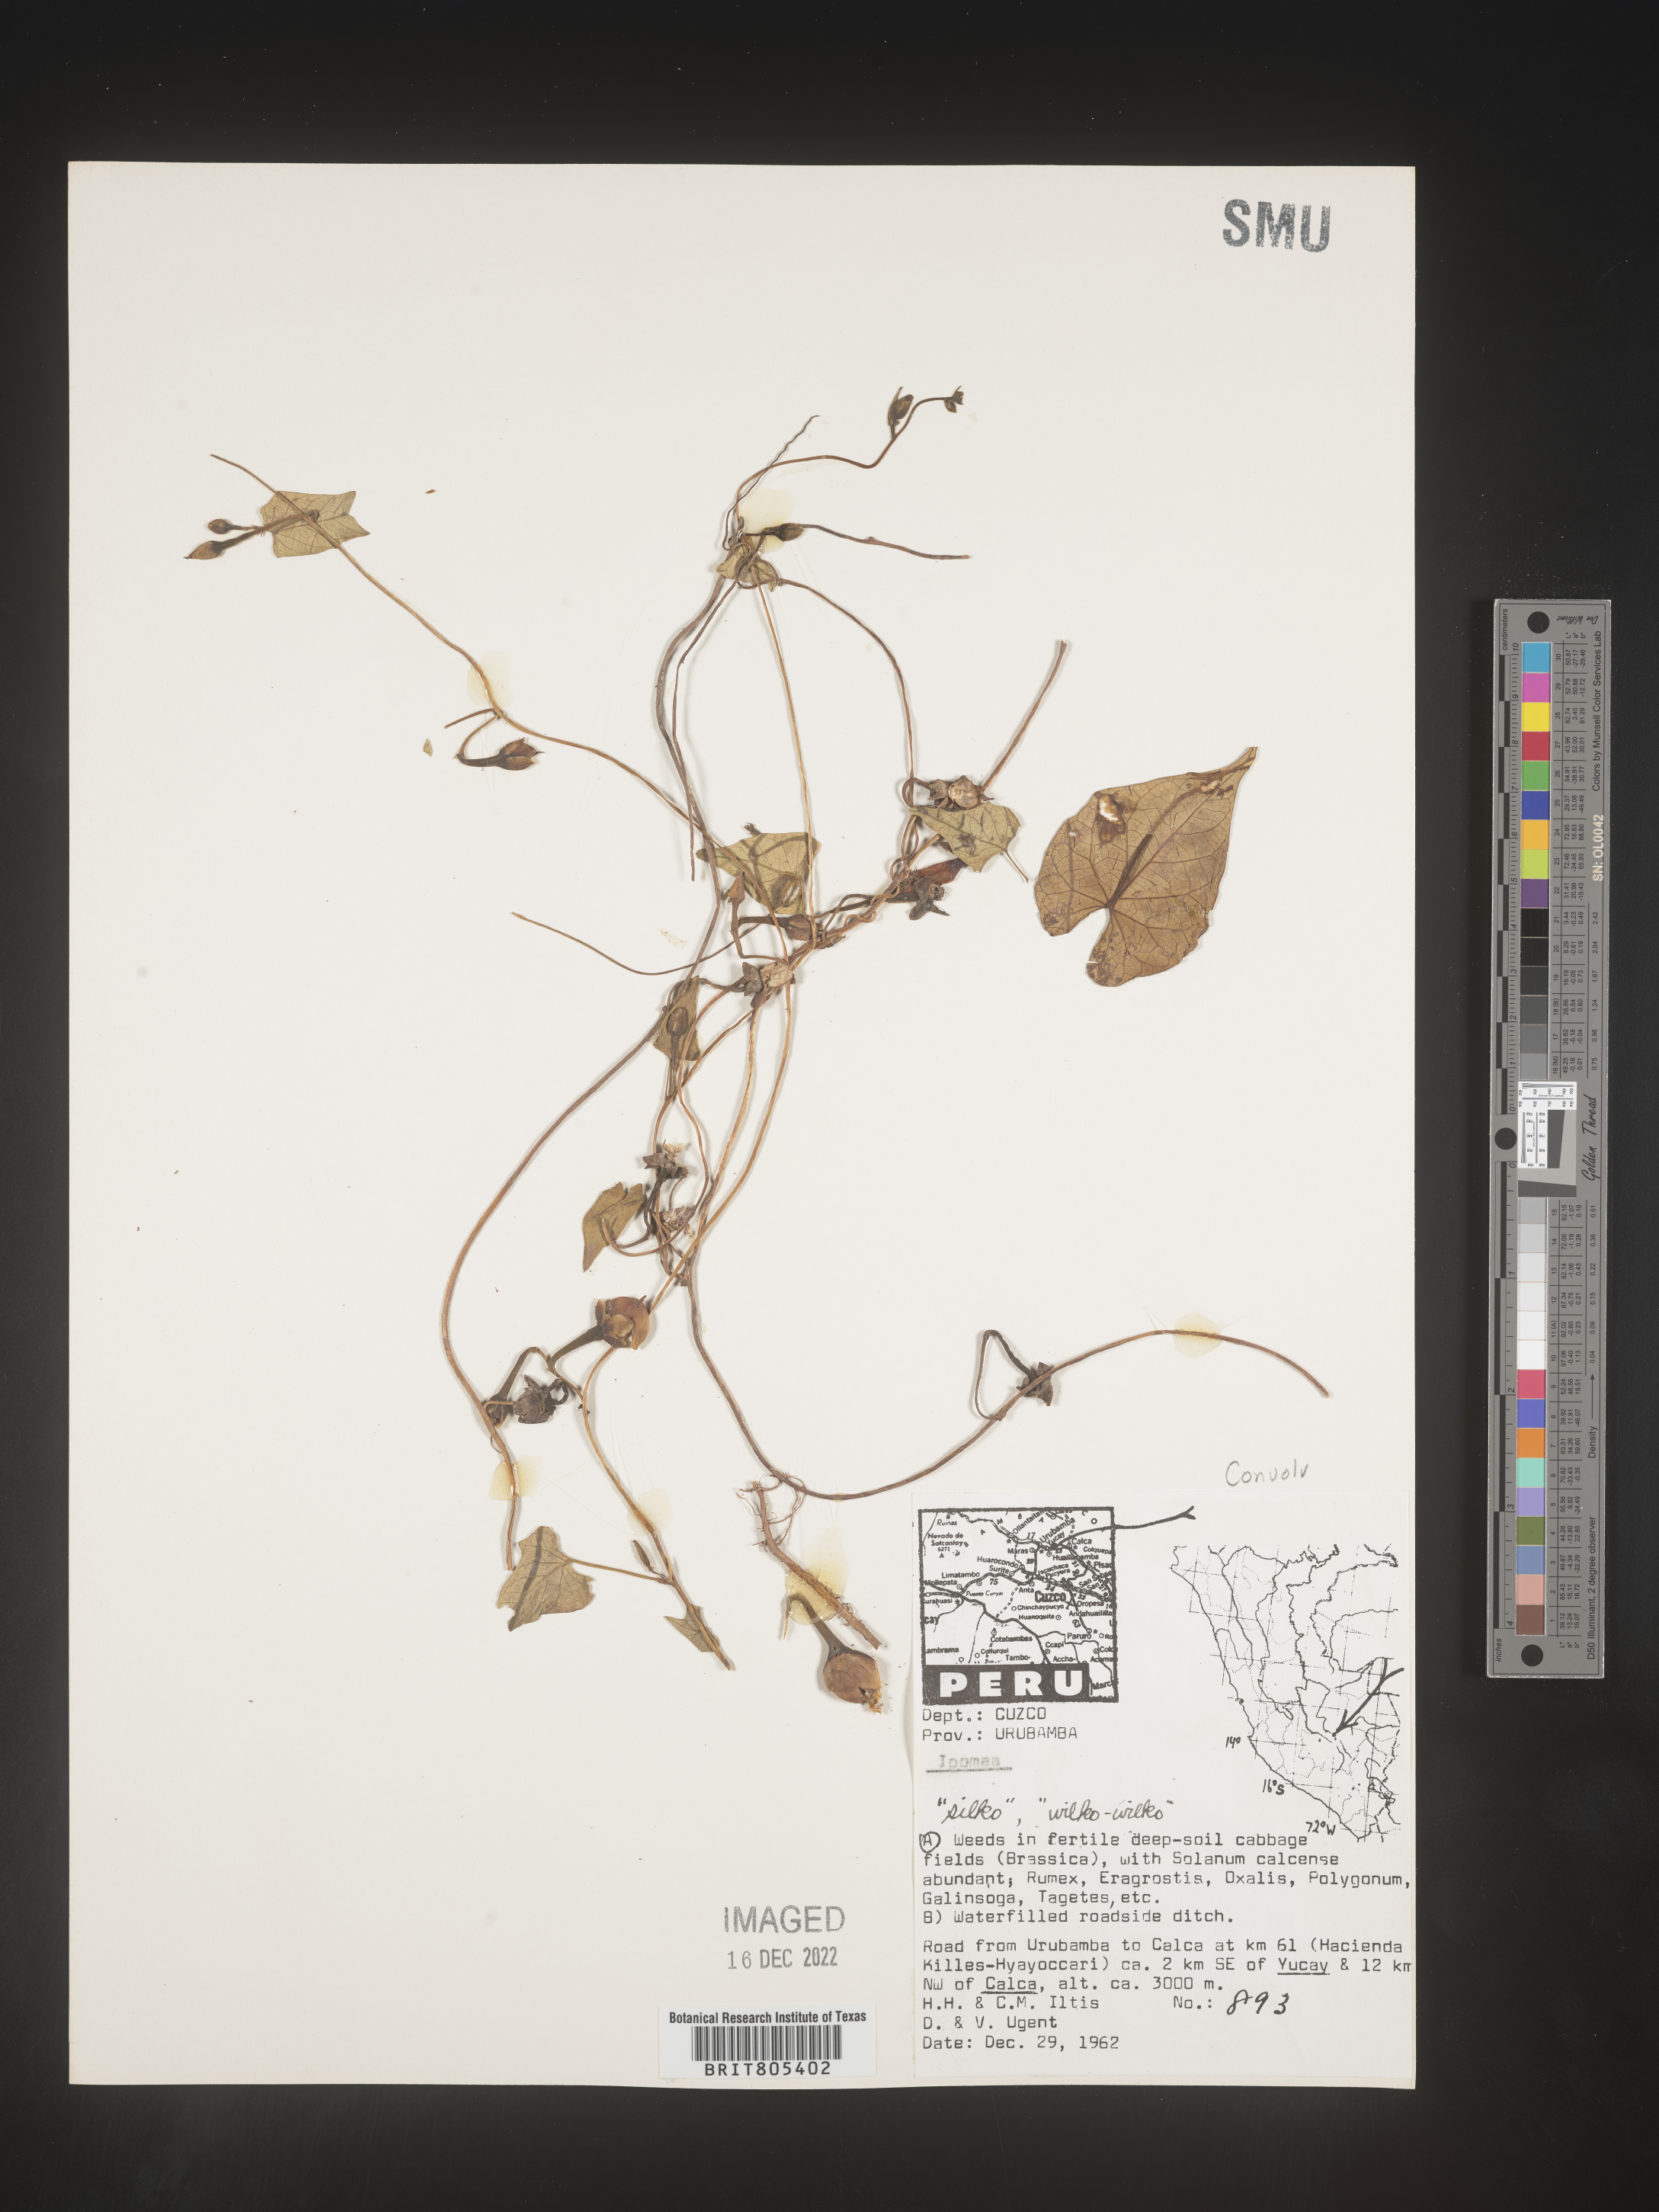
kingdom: Plantae
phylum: Tracheophyta
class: Magnoliopsida
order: Solanales
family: Convolvulaceae
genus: Ipomoea
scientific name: Ipomoea
